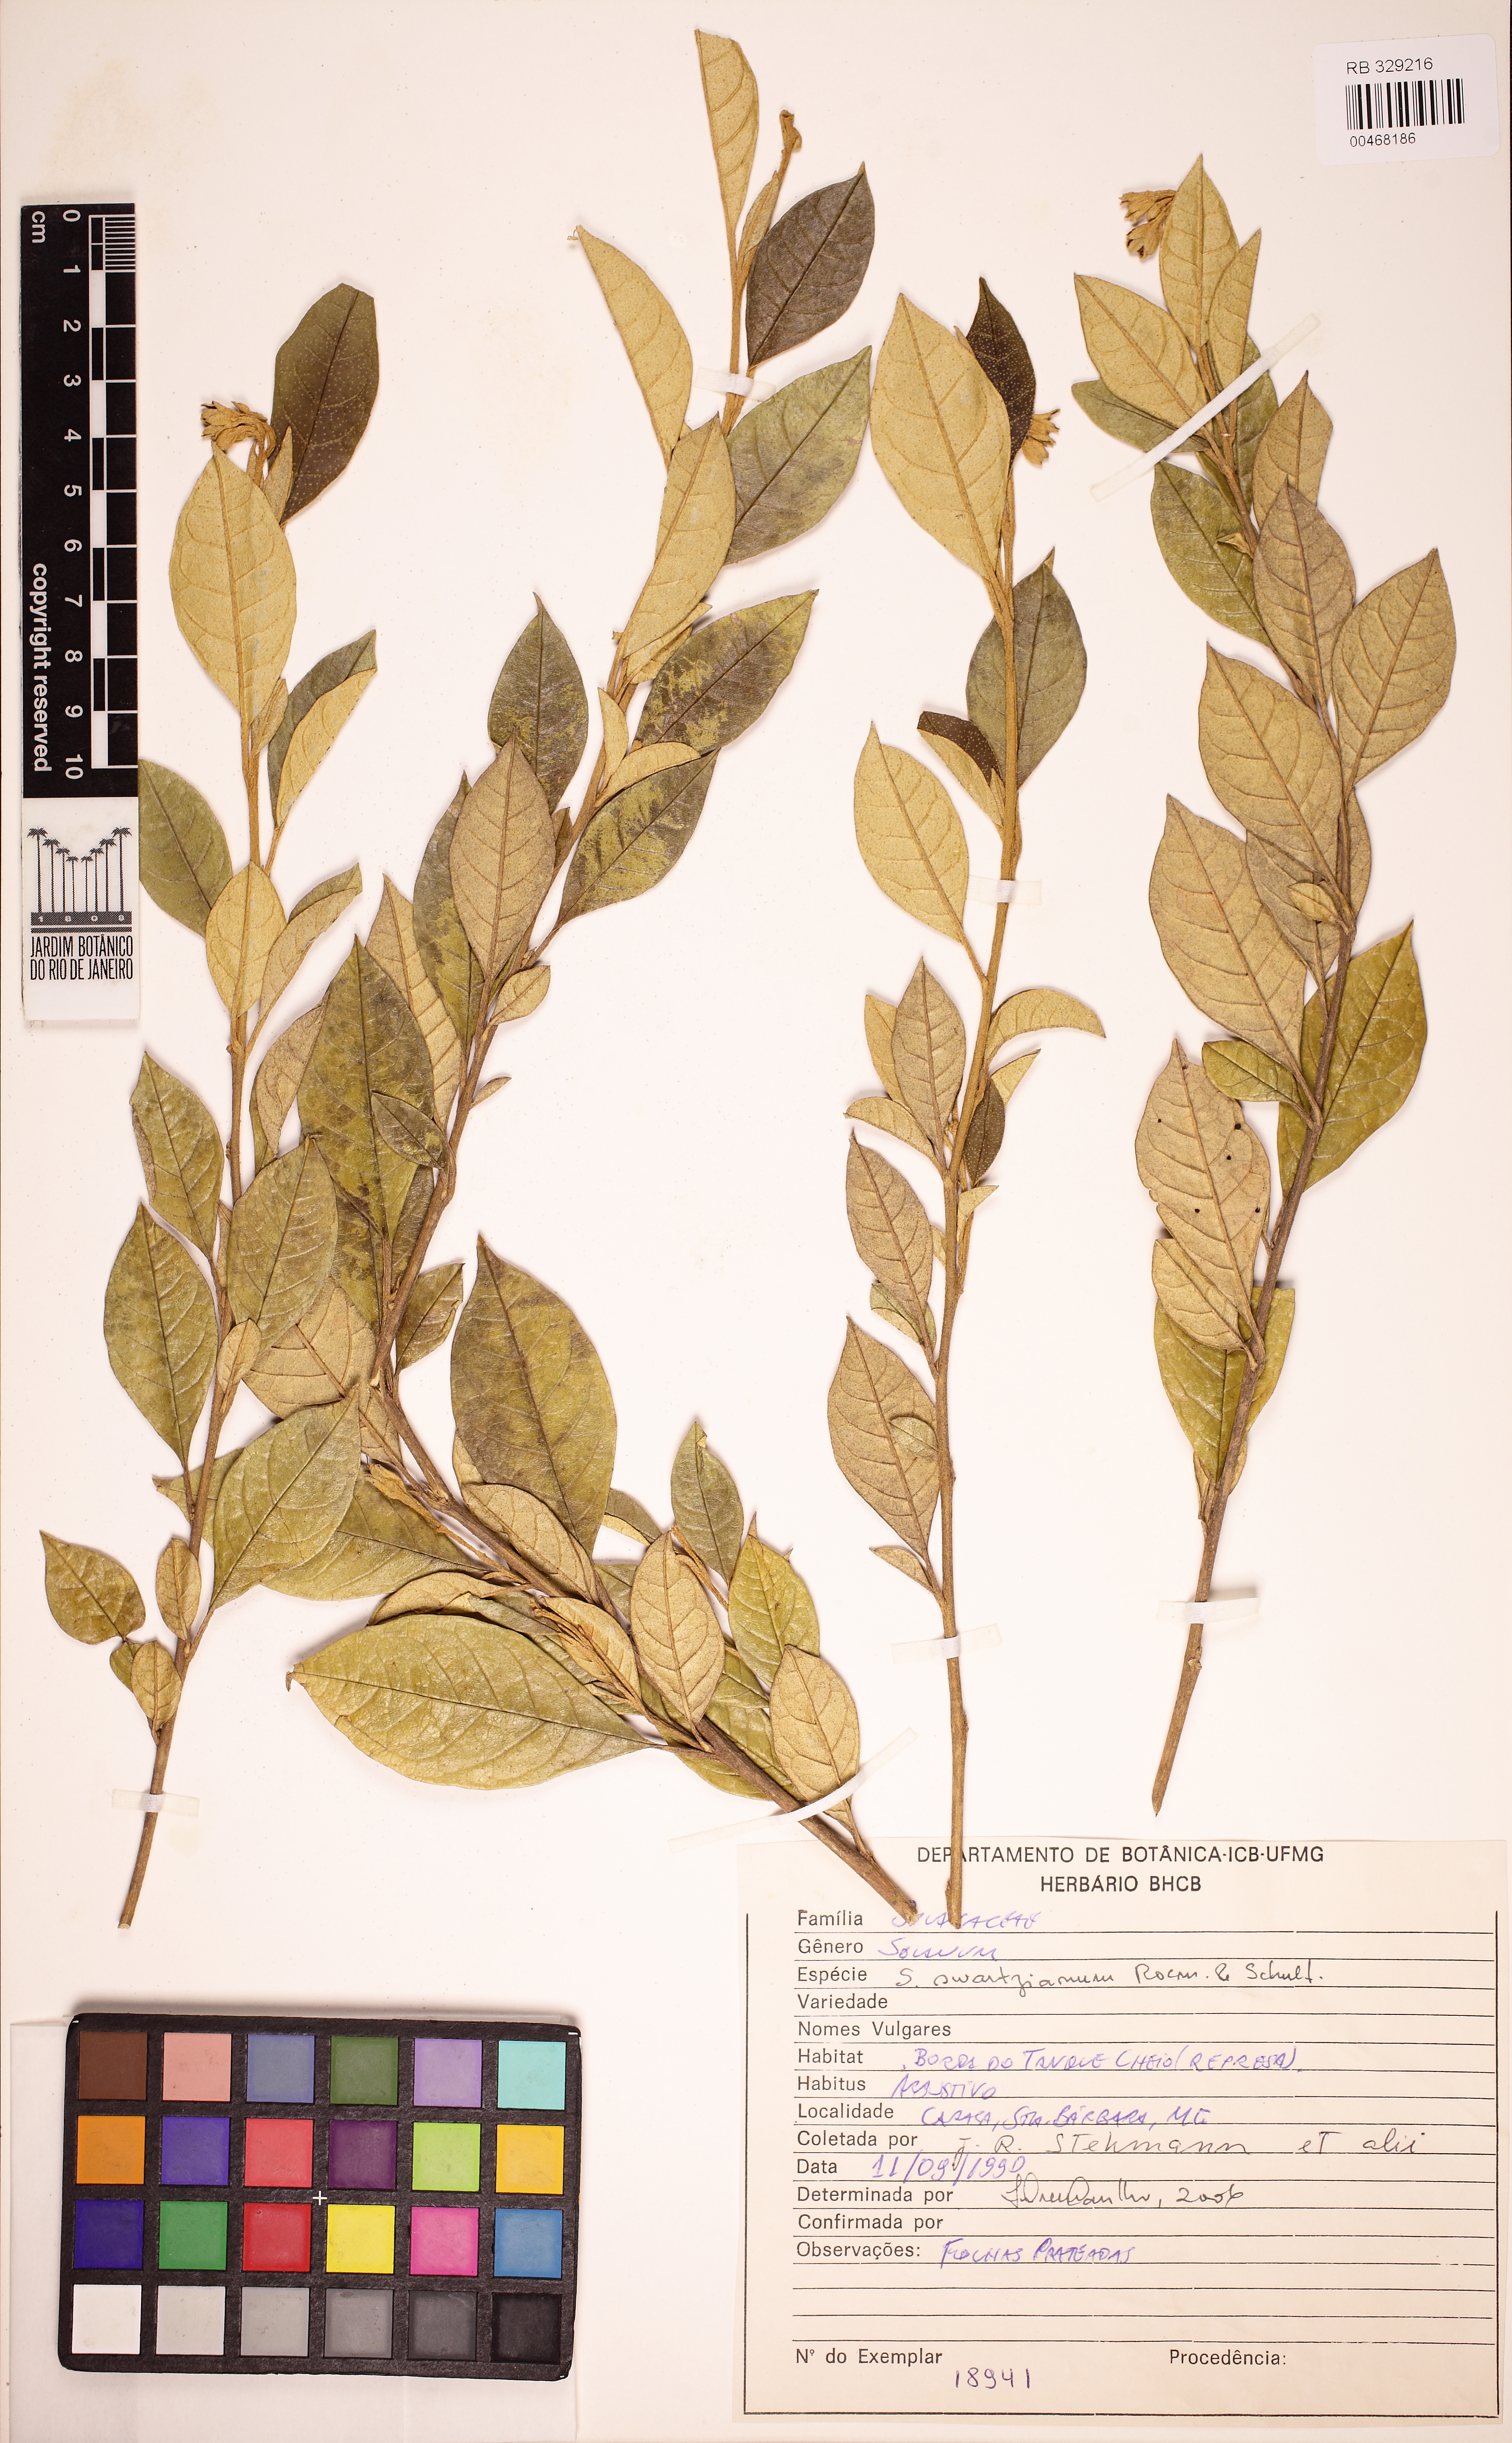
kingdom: Plantae
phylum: Tracheophyta
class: Magnoliopsida
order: Solanales
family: Solanaceae
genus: Solanum
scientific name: Solanum swartzianum
